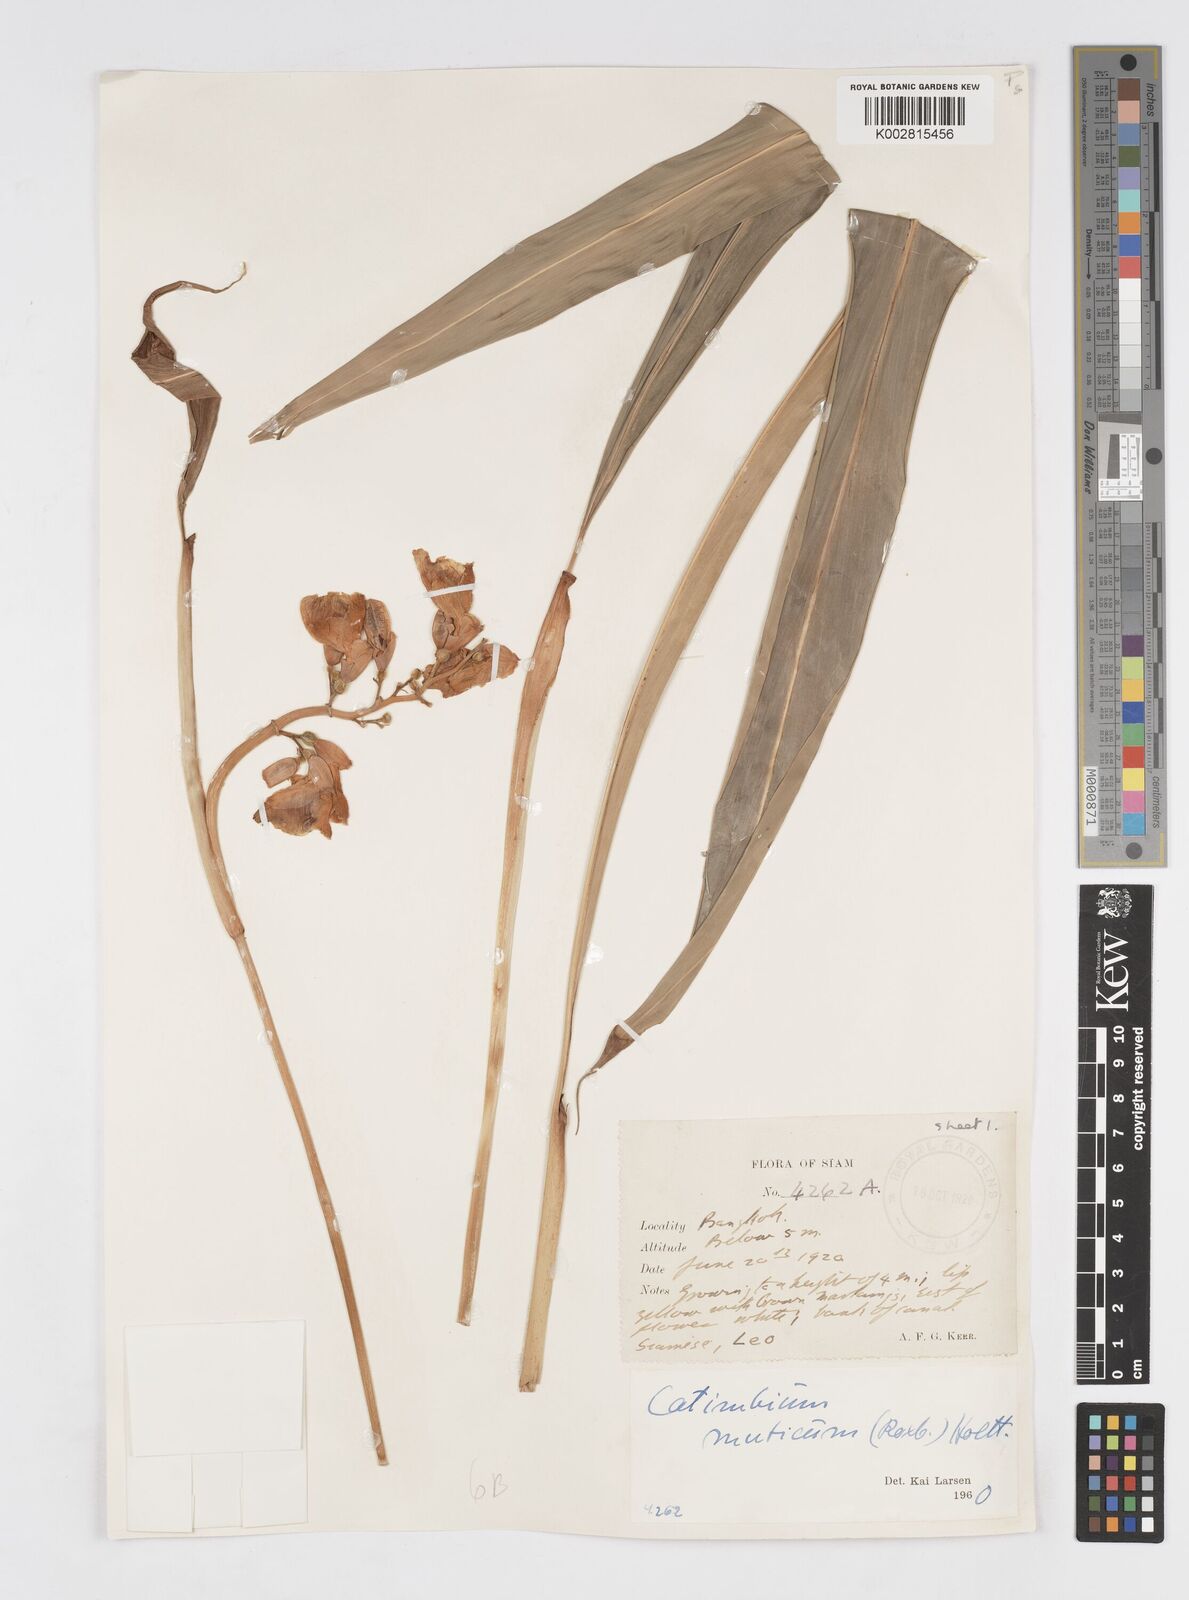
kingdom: Plantae
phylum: Tracheophyta
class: Liliopsida
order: Zingiberales
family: Zingiberaceae
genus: Alpinia
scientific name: Alpinia mutica
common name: Small shell ginger
